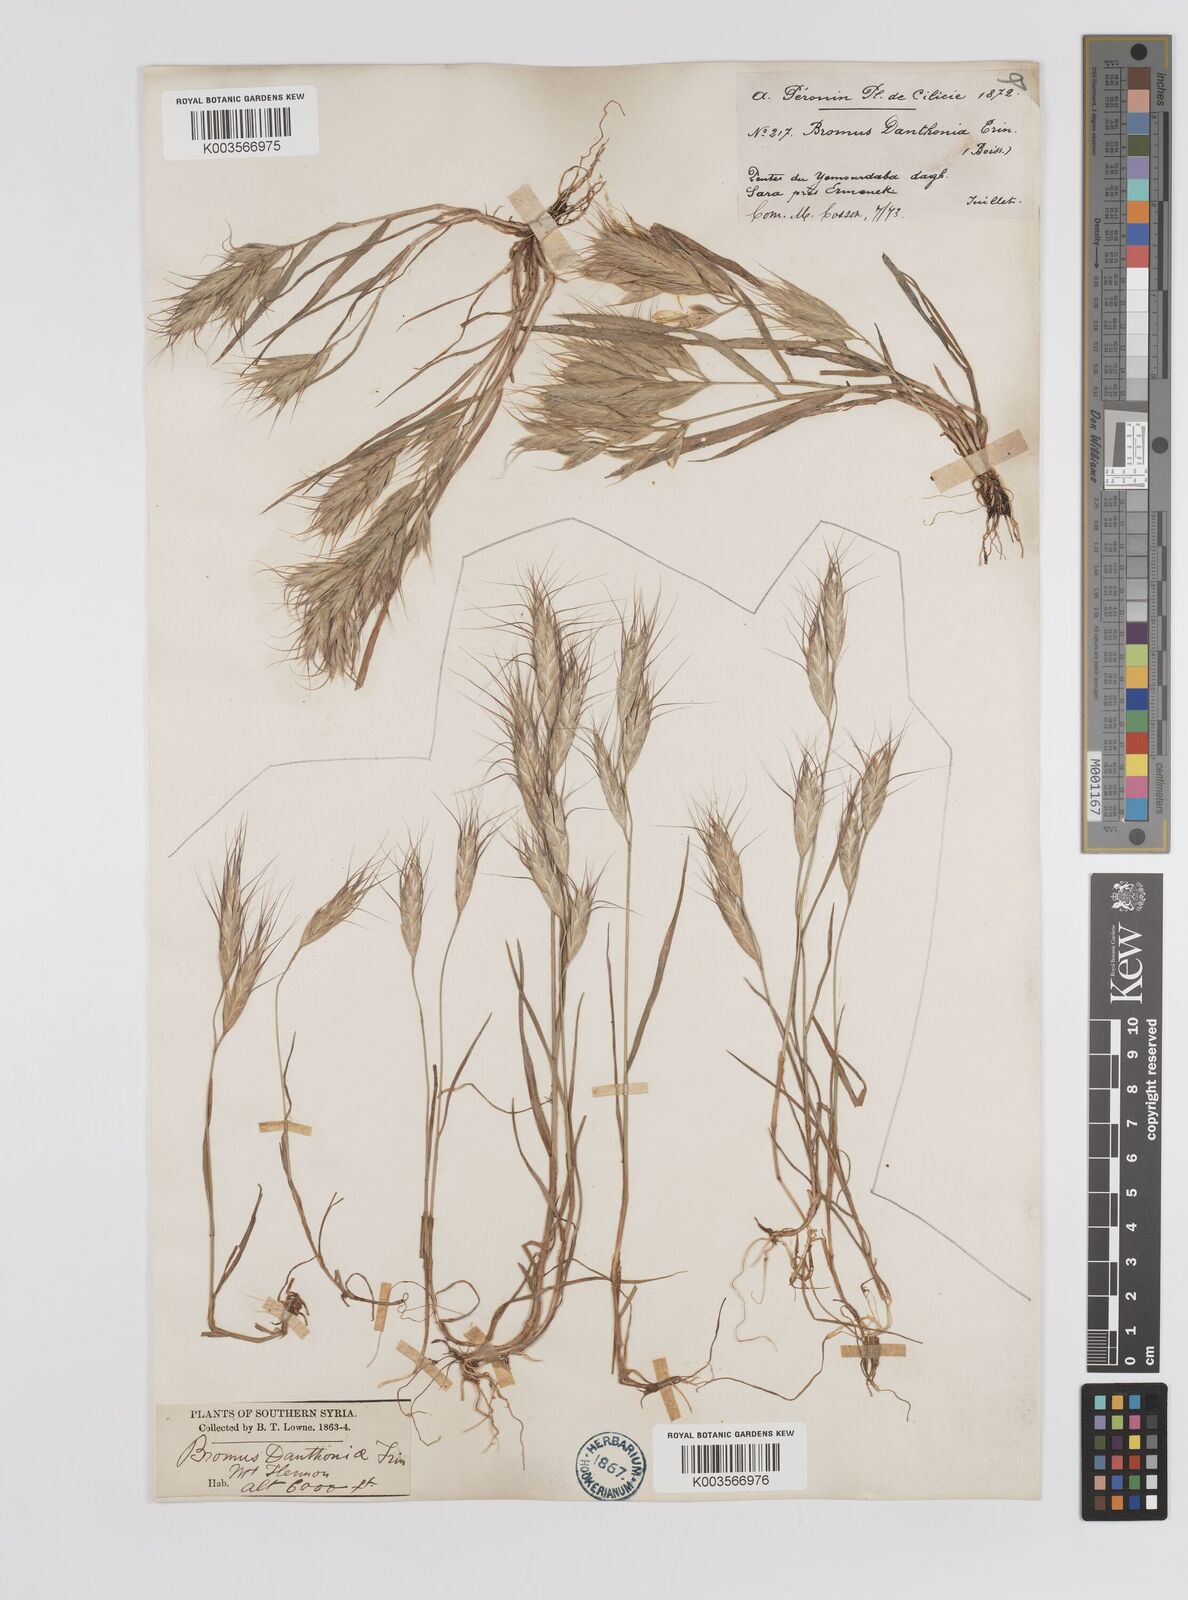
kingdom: Plantae
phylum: Tracheophyta
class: Liliopsida
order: Poales
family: Poaceae
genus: Bromus
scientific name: Bromus danthoniae
